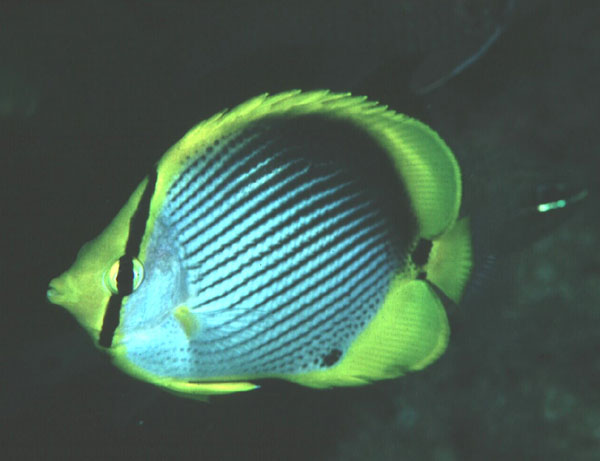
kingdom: Animalia
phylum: Chordata
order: Perciformes
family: Chaetodontidae
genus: Chaetodon
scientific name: Chaetodon melannotus
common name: Blackback butterflyfish
